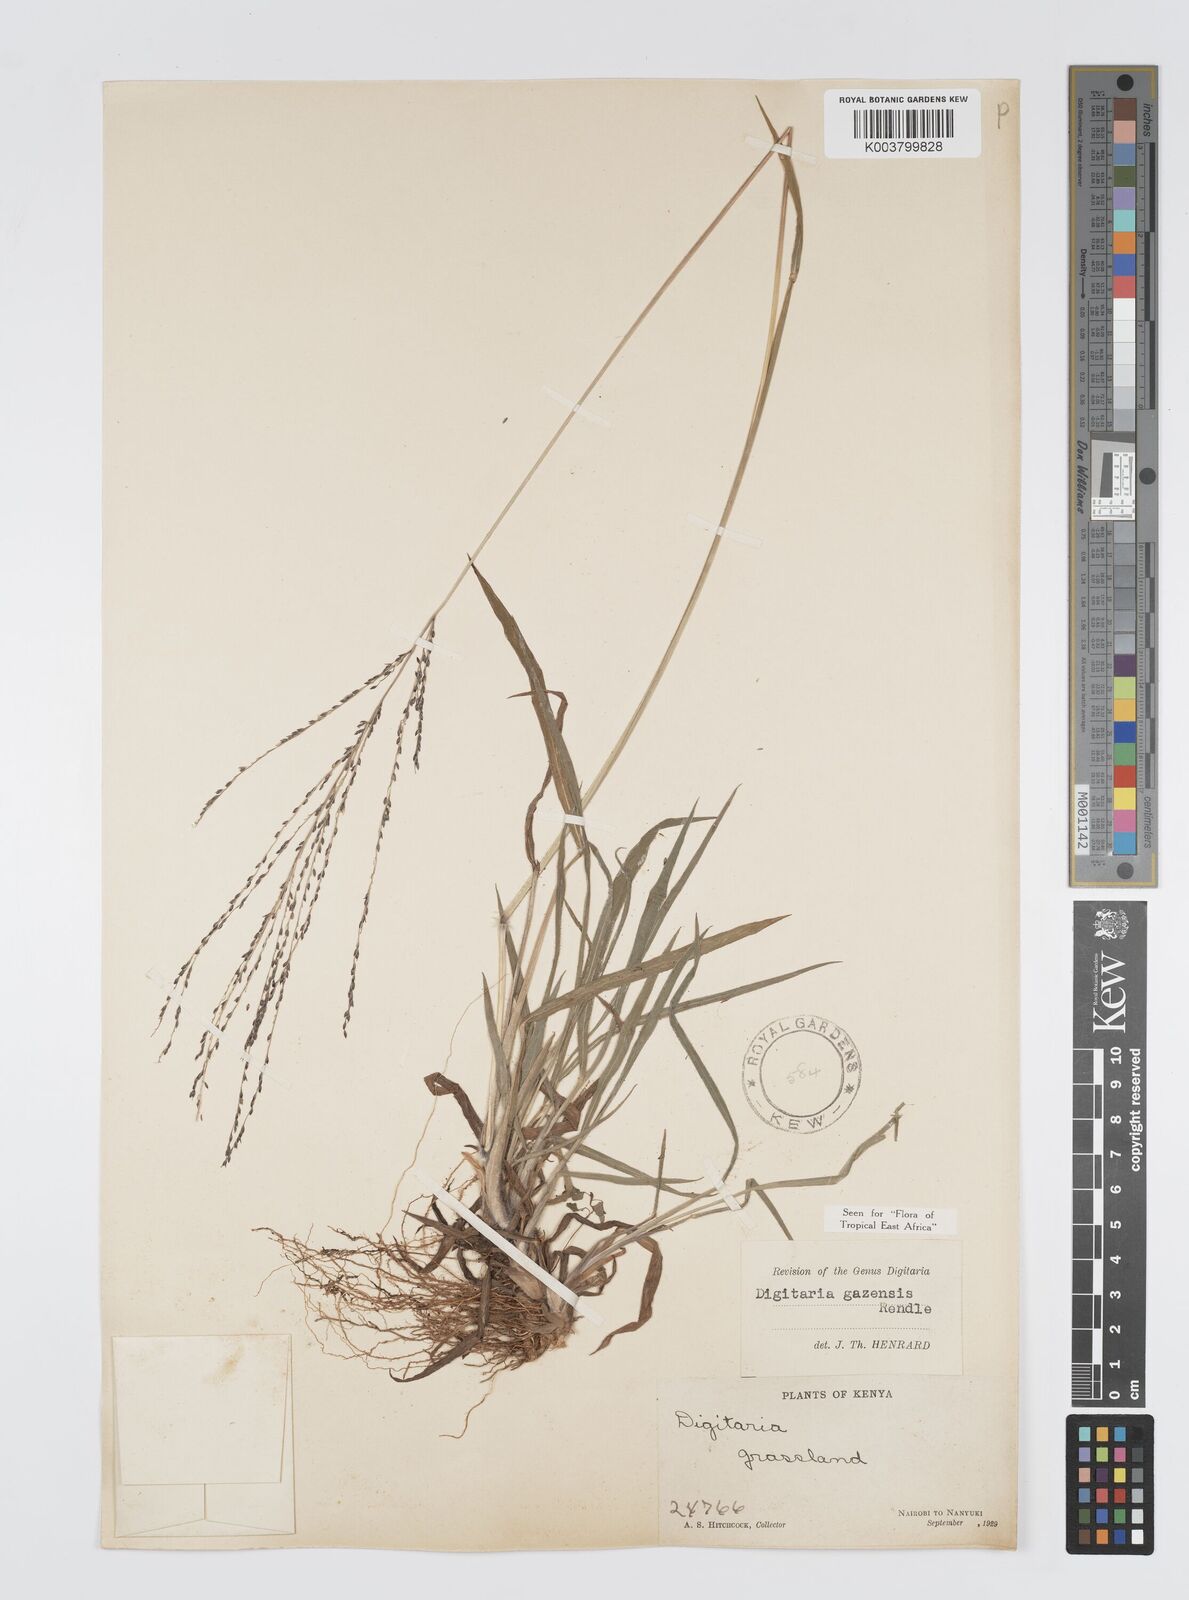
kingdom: Plantae
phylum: Tracheophyta
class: Liliopsida
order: Poales
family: Poaceae
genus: Digitaria
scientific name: Digitaria gazensis
